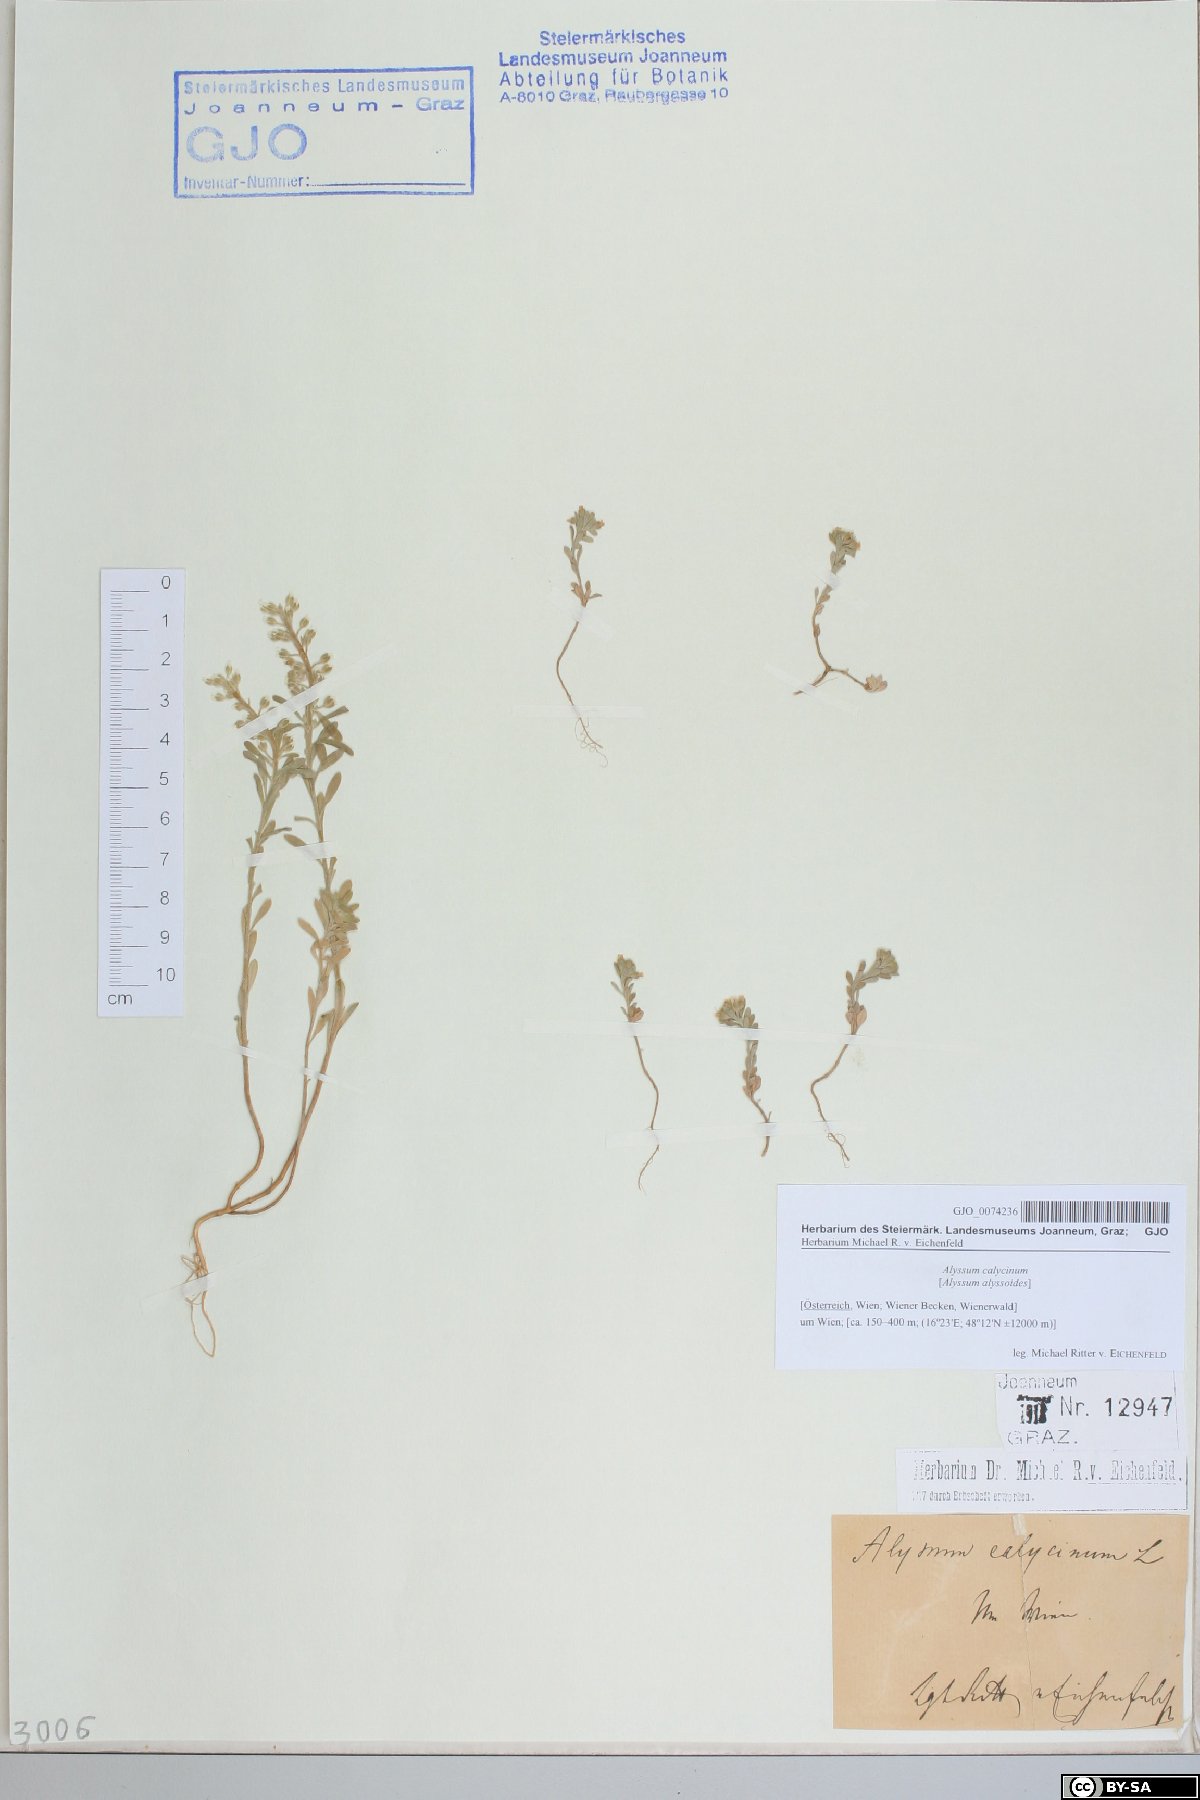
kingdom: Plantae
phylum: Tracheophyta
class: Magnoliopsida
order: Brassicales
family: Brassicaceae
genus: Alyssum
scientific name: Alyssum alyssoides
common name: Small alison
